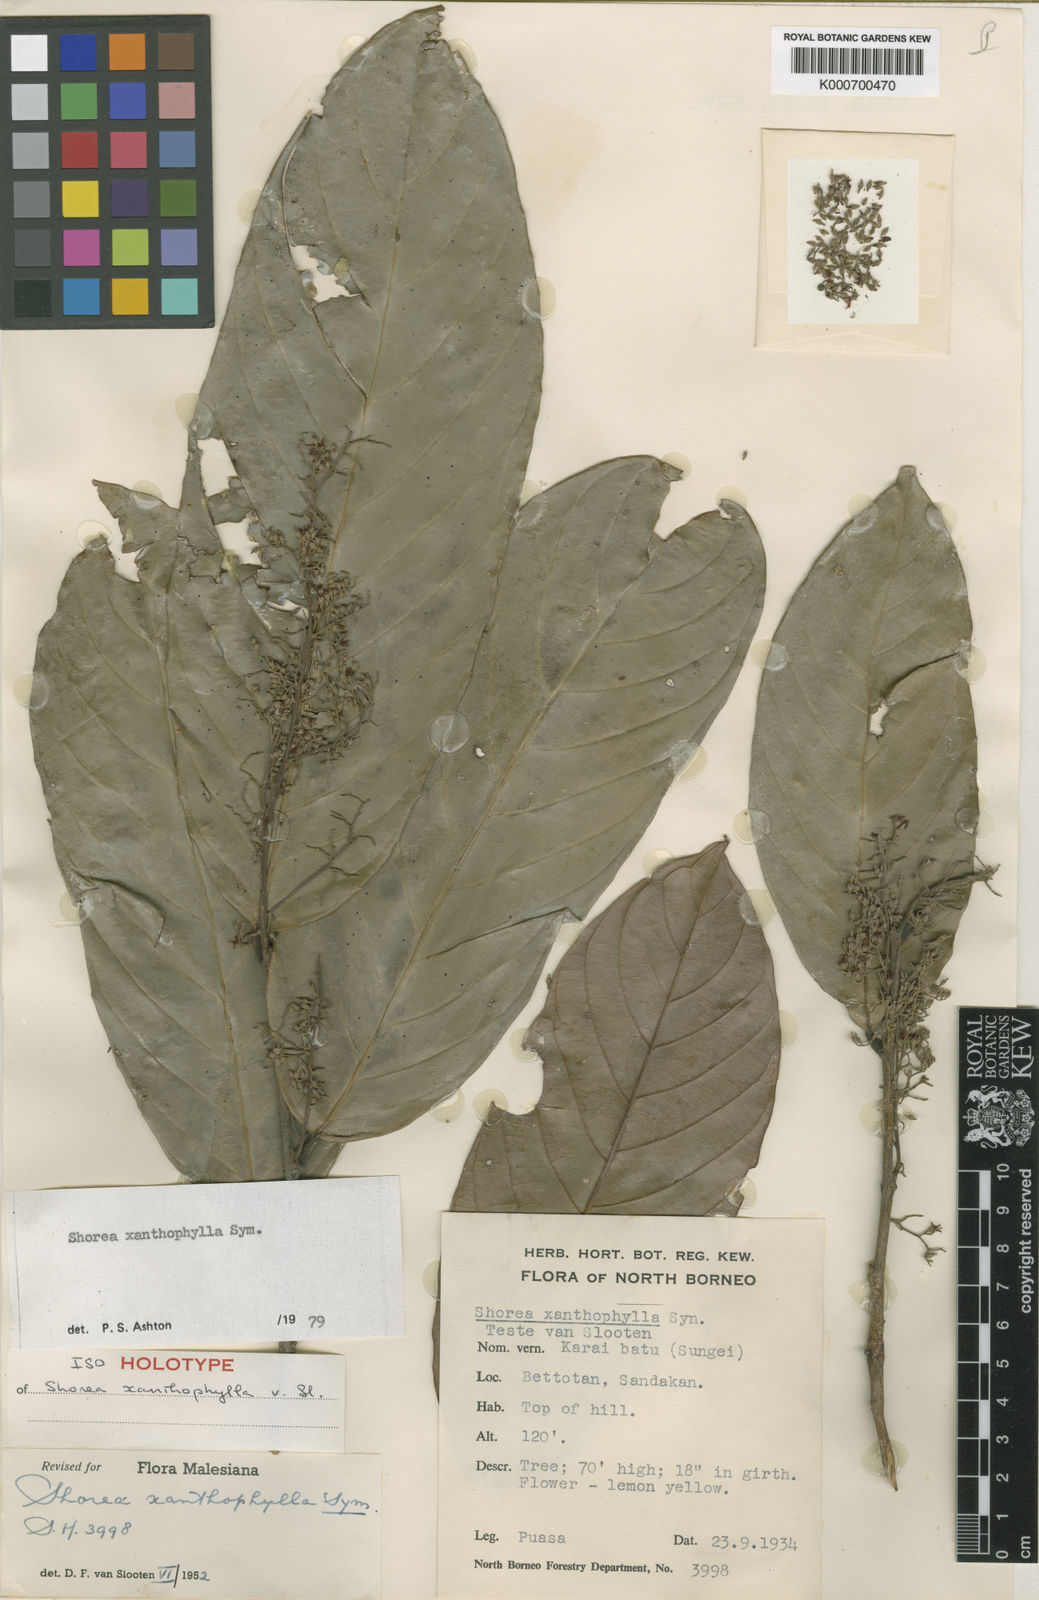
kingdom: Plantae
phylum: Tracheophyta
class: Magnoliopsida
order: Malvales
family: Dipterocarpaceae
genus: Shorea
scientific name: Shorea
